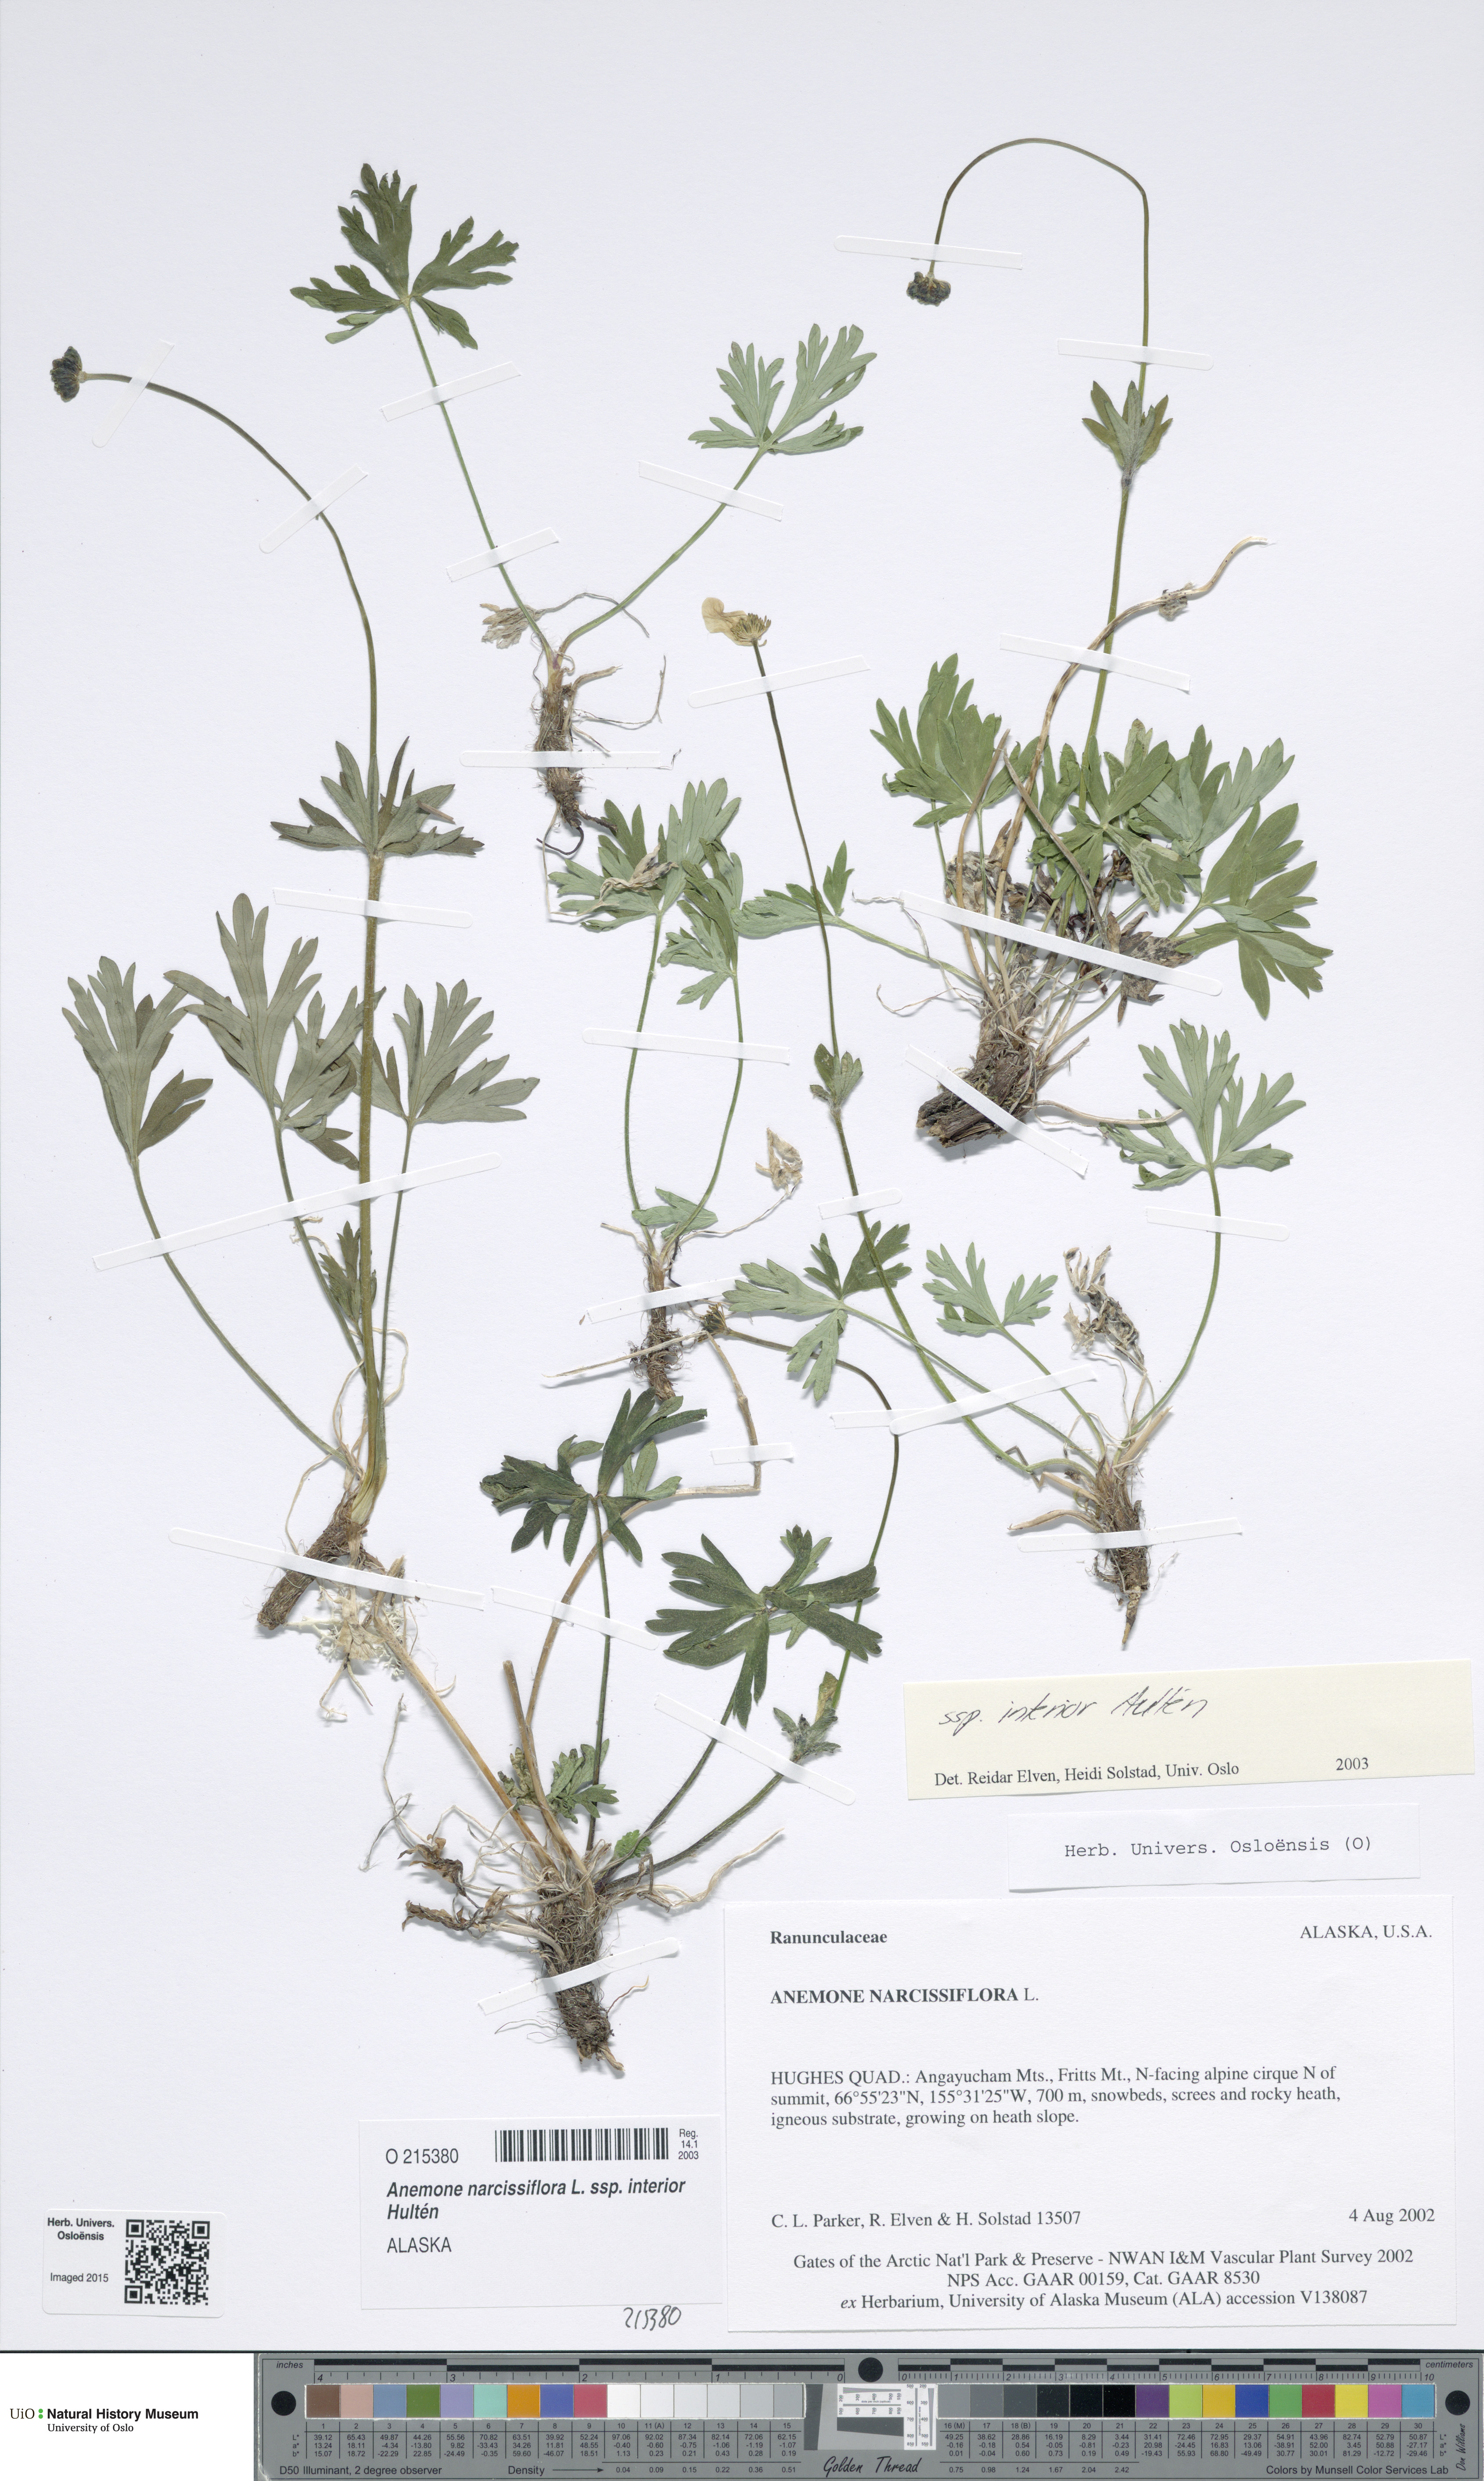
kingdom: Plantae
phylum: Tracheophyta
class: Magnoliopsida
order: Ranunculales
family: Ranunculaceae
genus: Anemonastrum
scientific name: Anemonastrum narcissiflorum
